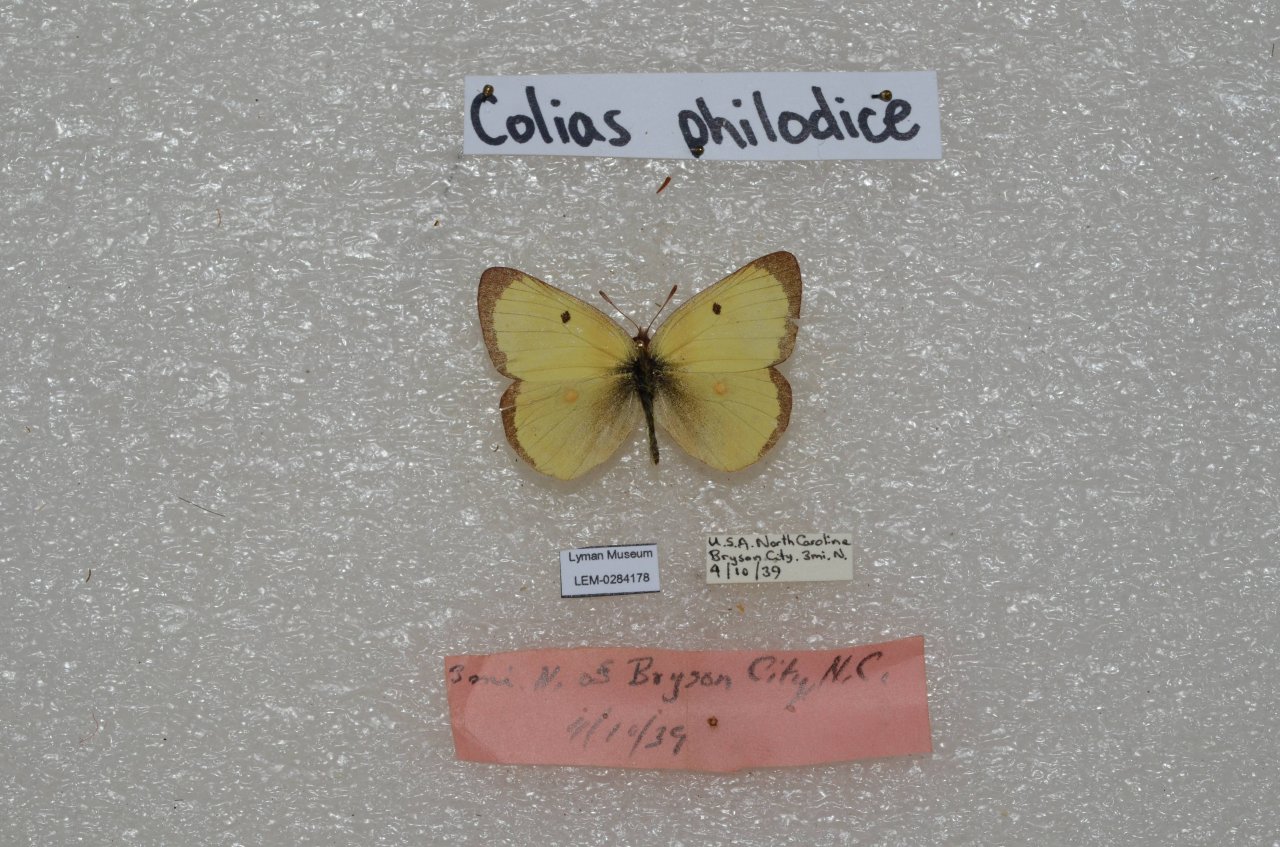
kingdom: Animalia
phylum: Arthropoda
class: Insecta
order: Lepidoptera
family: Pieridae
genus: Colias
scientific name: Colias philodice
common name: Clouded Sulphur
